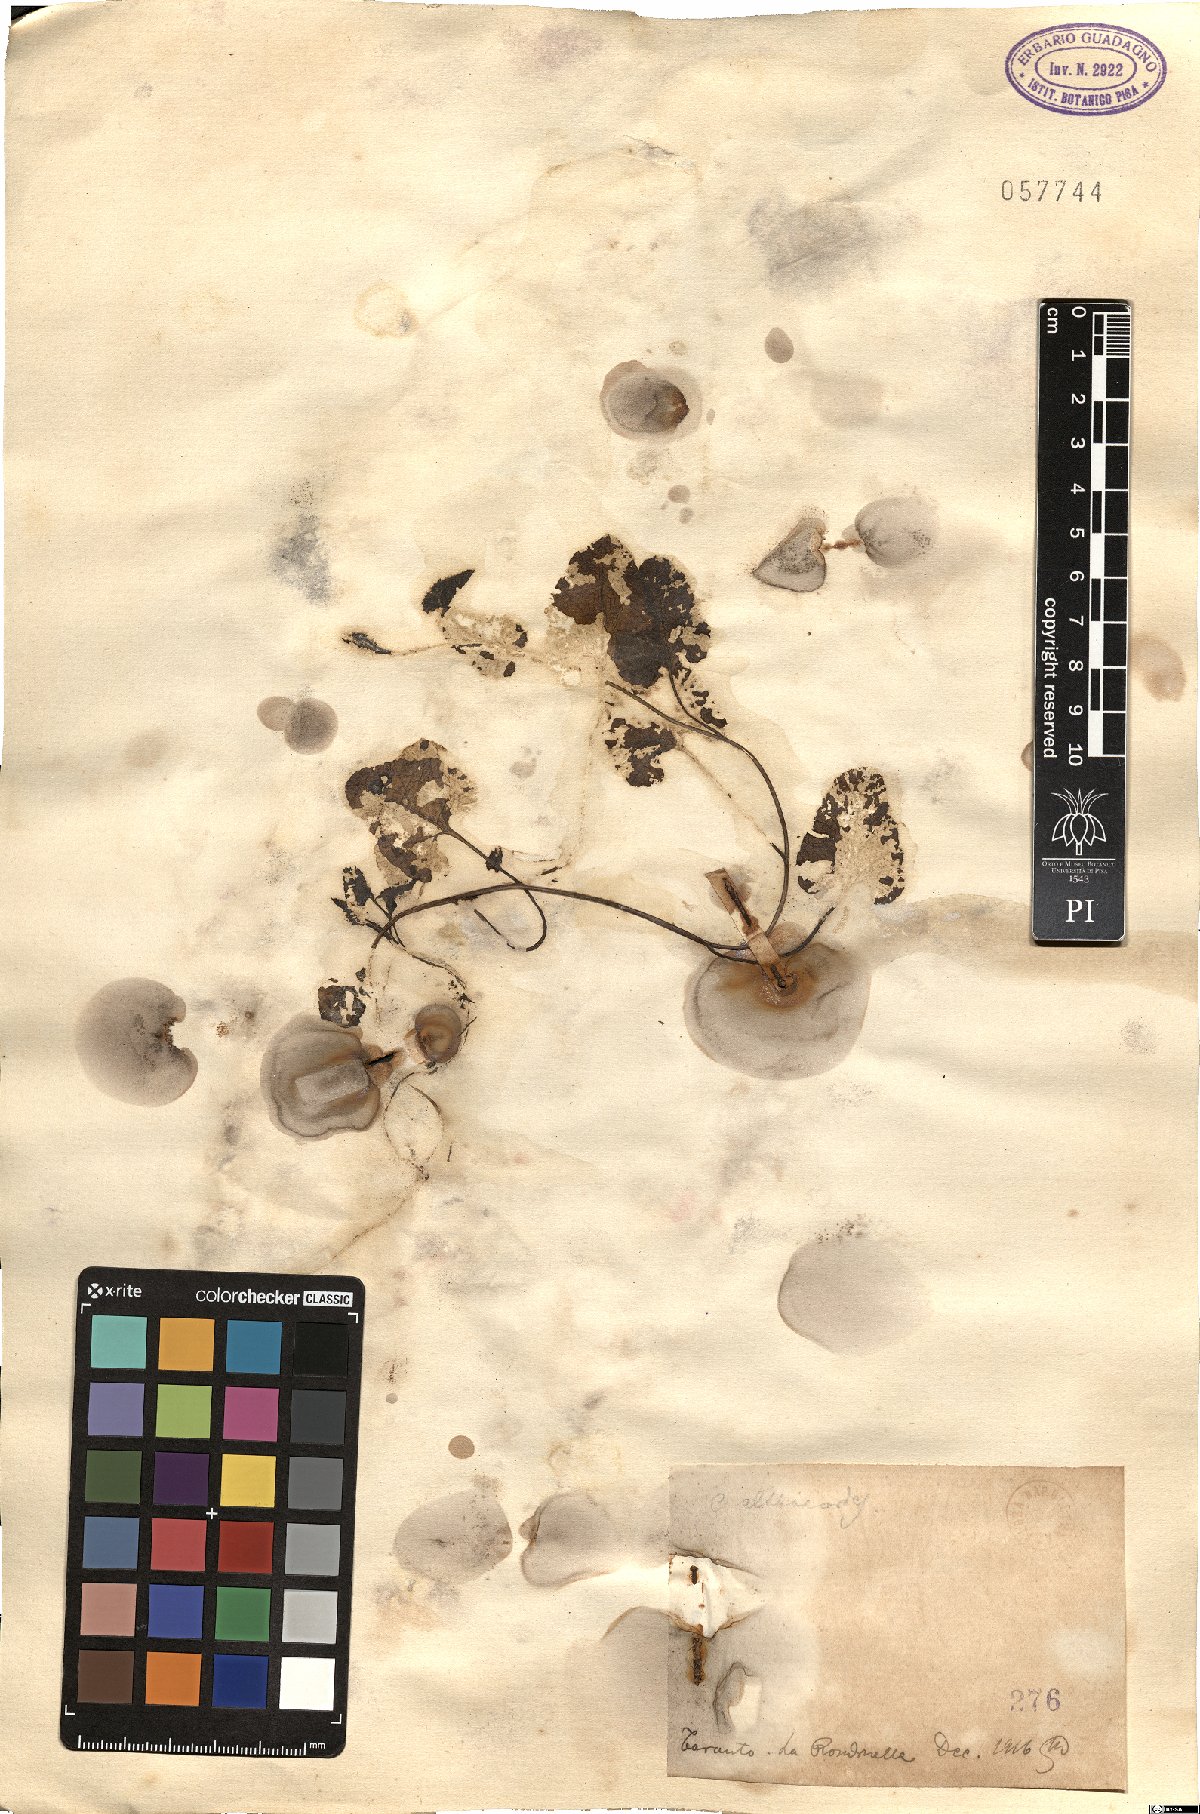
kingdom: Plantae
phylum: Tracheophyta
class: Magnoliopsida
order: Solanales
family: Convolvulaceae
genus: Convolvulus
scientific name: Convolvulus althaeoides
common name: Mallow bindweed
